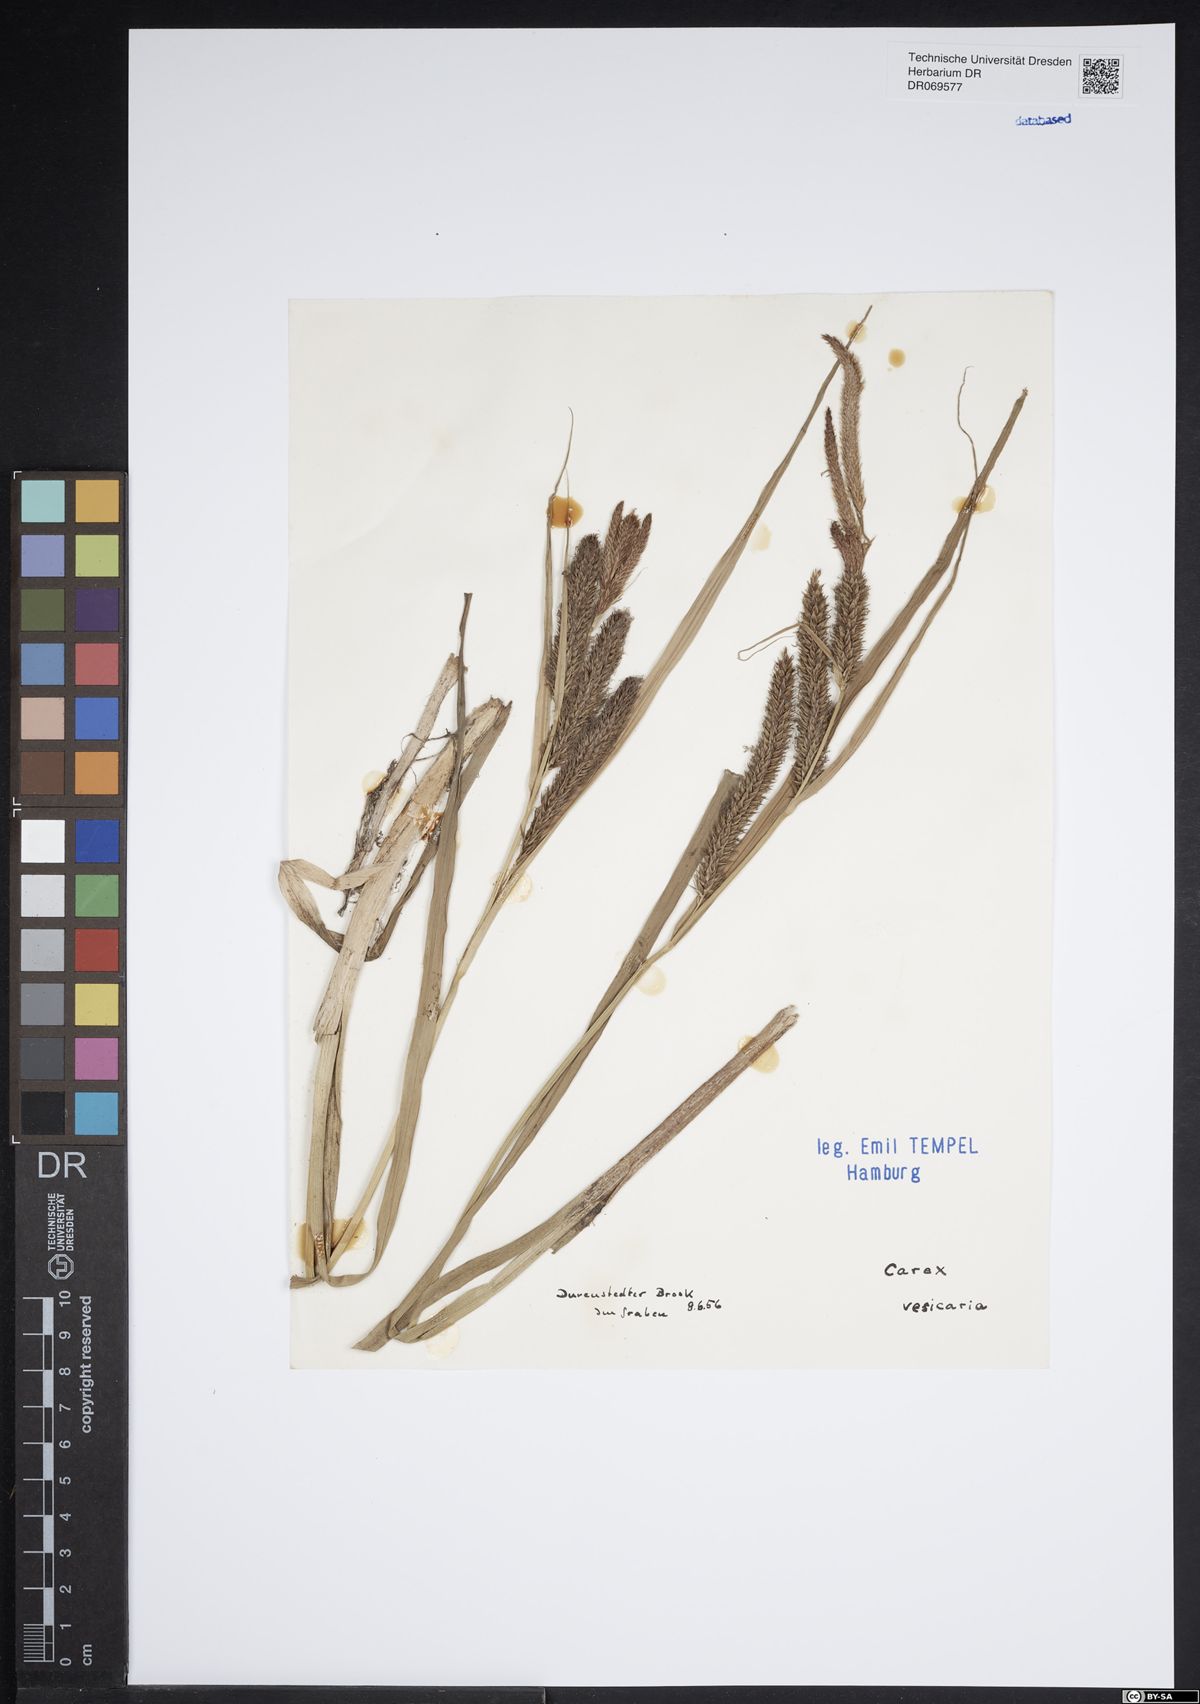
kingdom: Plantae
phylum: Tracheophyta
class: Liliopsida
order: Poales
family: Cyperaceae
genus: Carex
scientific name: Carex vesicaria
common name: Bladder-sedge
